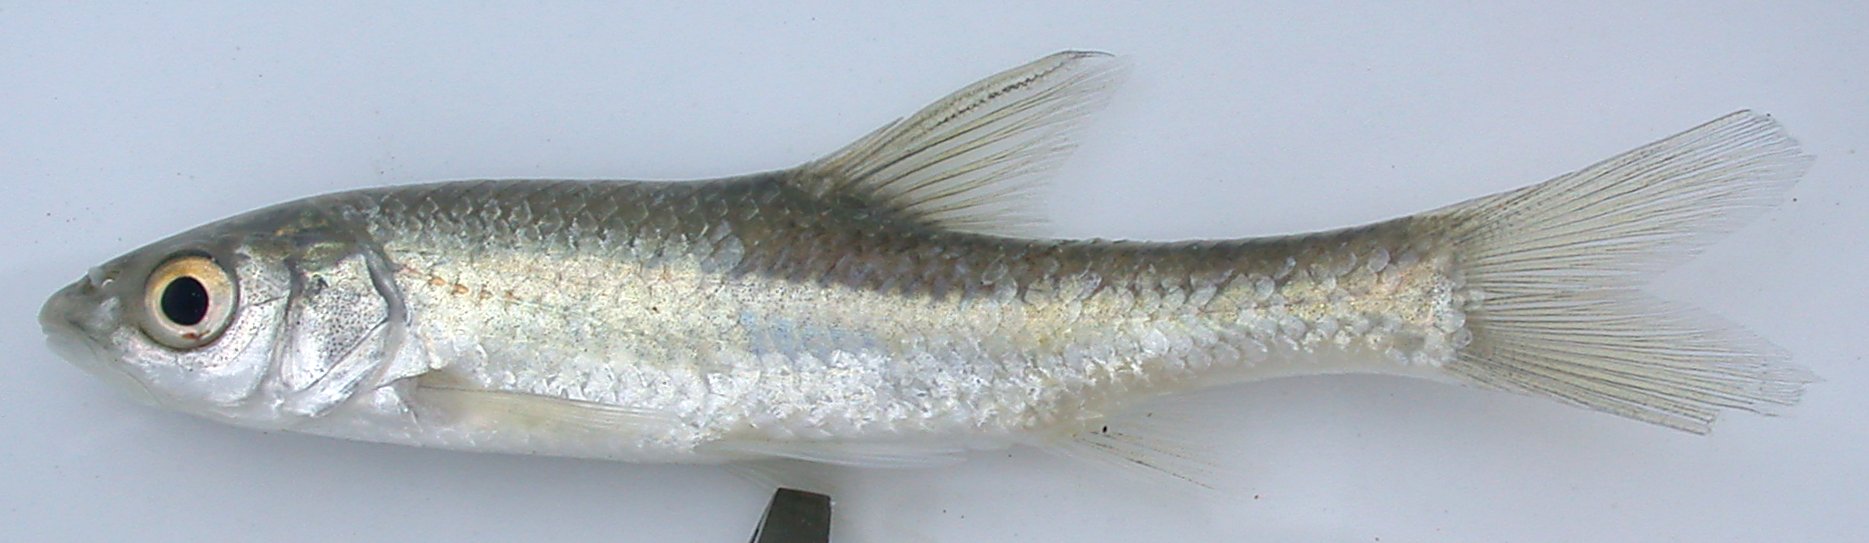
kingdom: Animalia
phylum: Chordata
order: Cypriniformes
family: Cyprinidae
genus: Enteromius
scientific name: Enteromius paludinosus
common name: Straightfin barb
